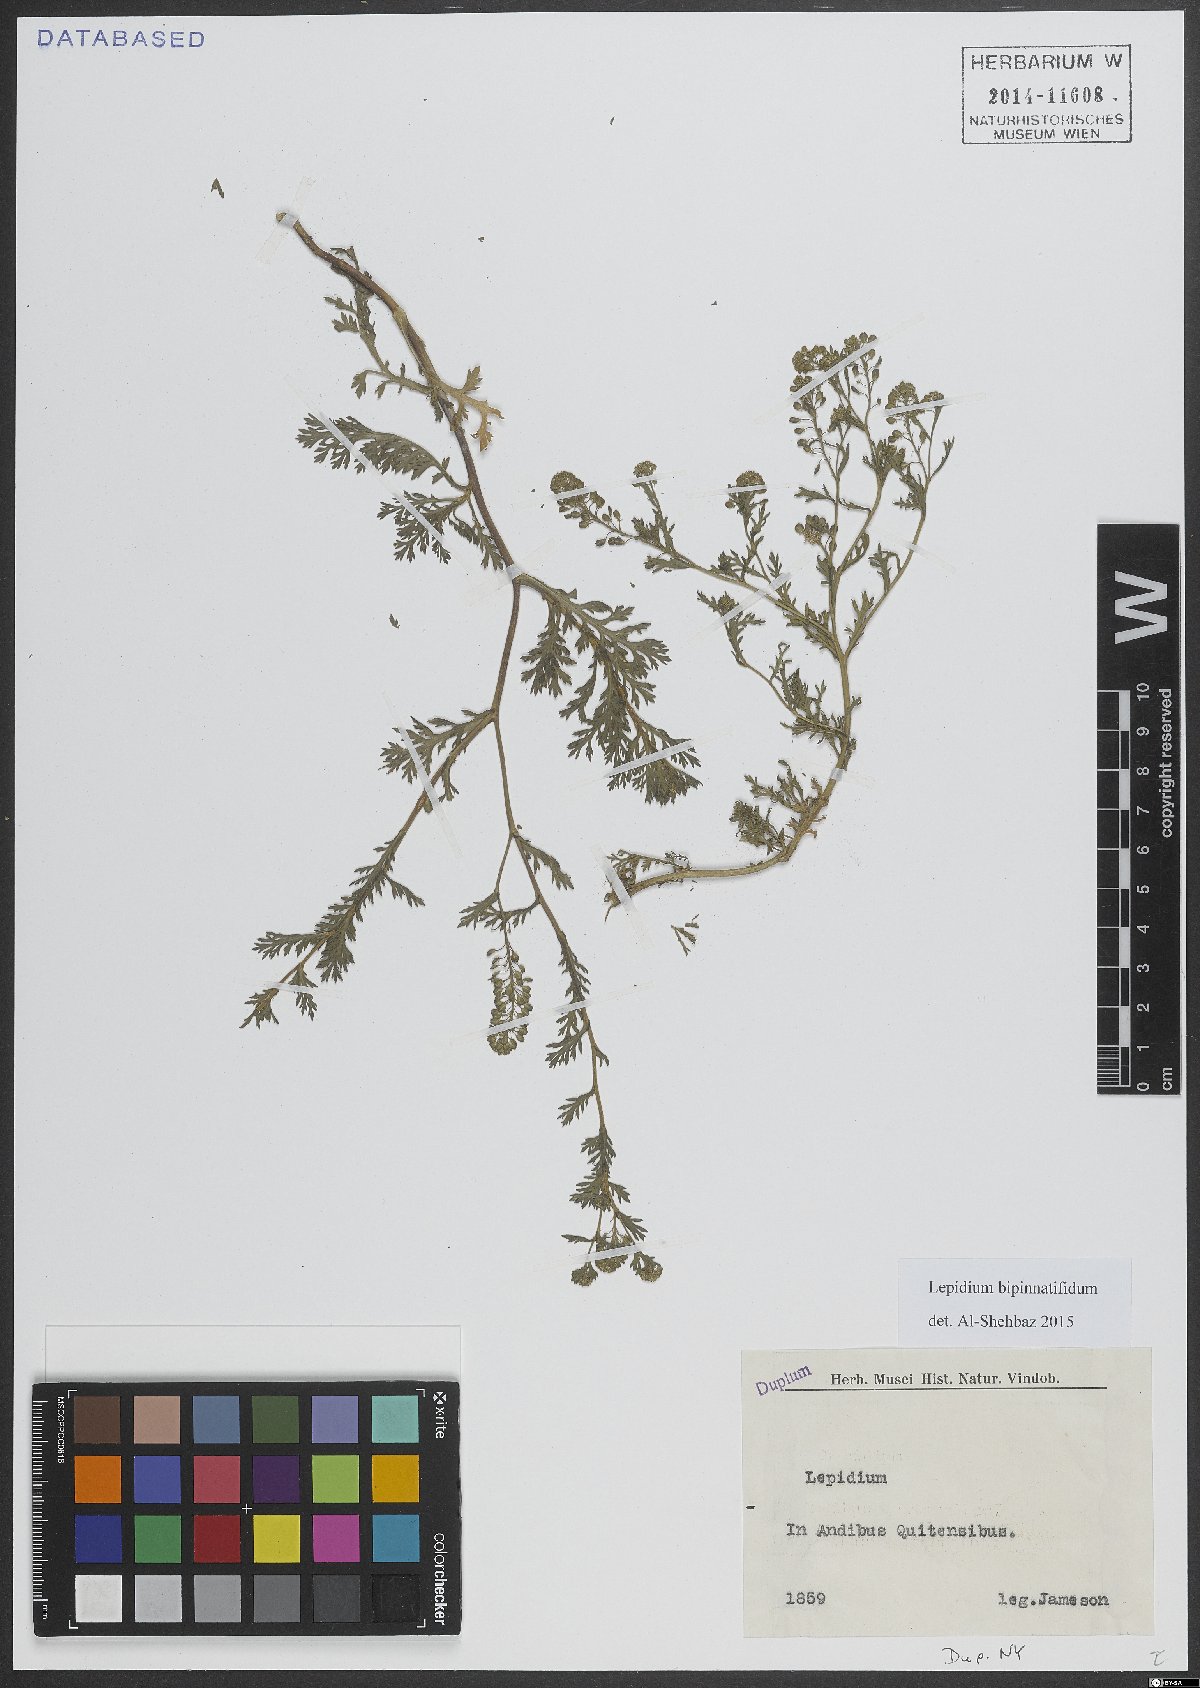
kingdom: Plantae
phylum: Tracheophyta
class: Magnoliopsida
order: Brassicales
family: Brassicaceae
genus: Lepidium
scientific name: Lepidium bipinnatifidum
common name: Wayside pepperwort
